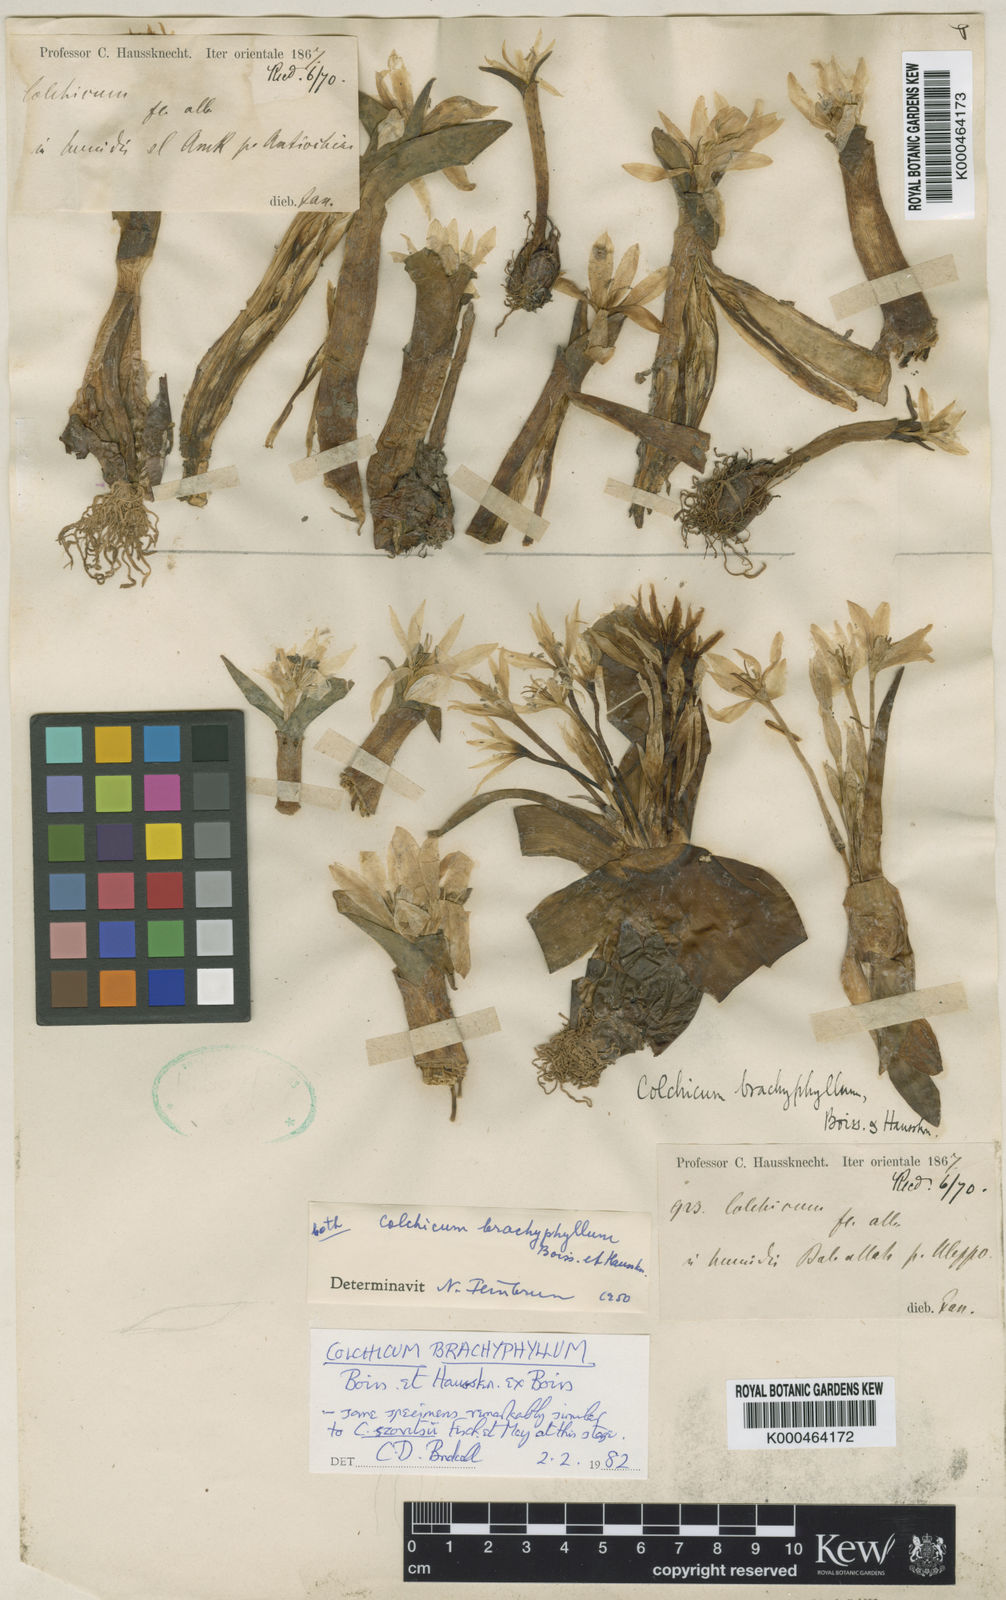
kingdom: Plantae
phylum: Tracheophyta
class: Liliopsida
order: Liliales
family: Colchicaceae
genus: Colchicum
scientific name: Colchicum szovitsii
